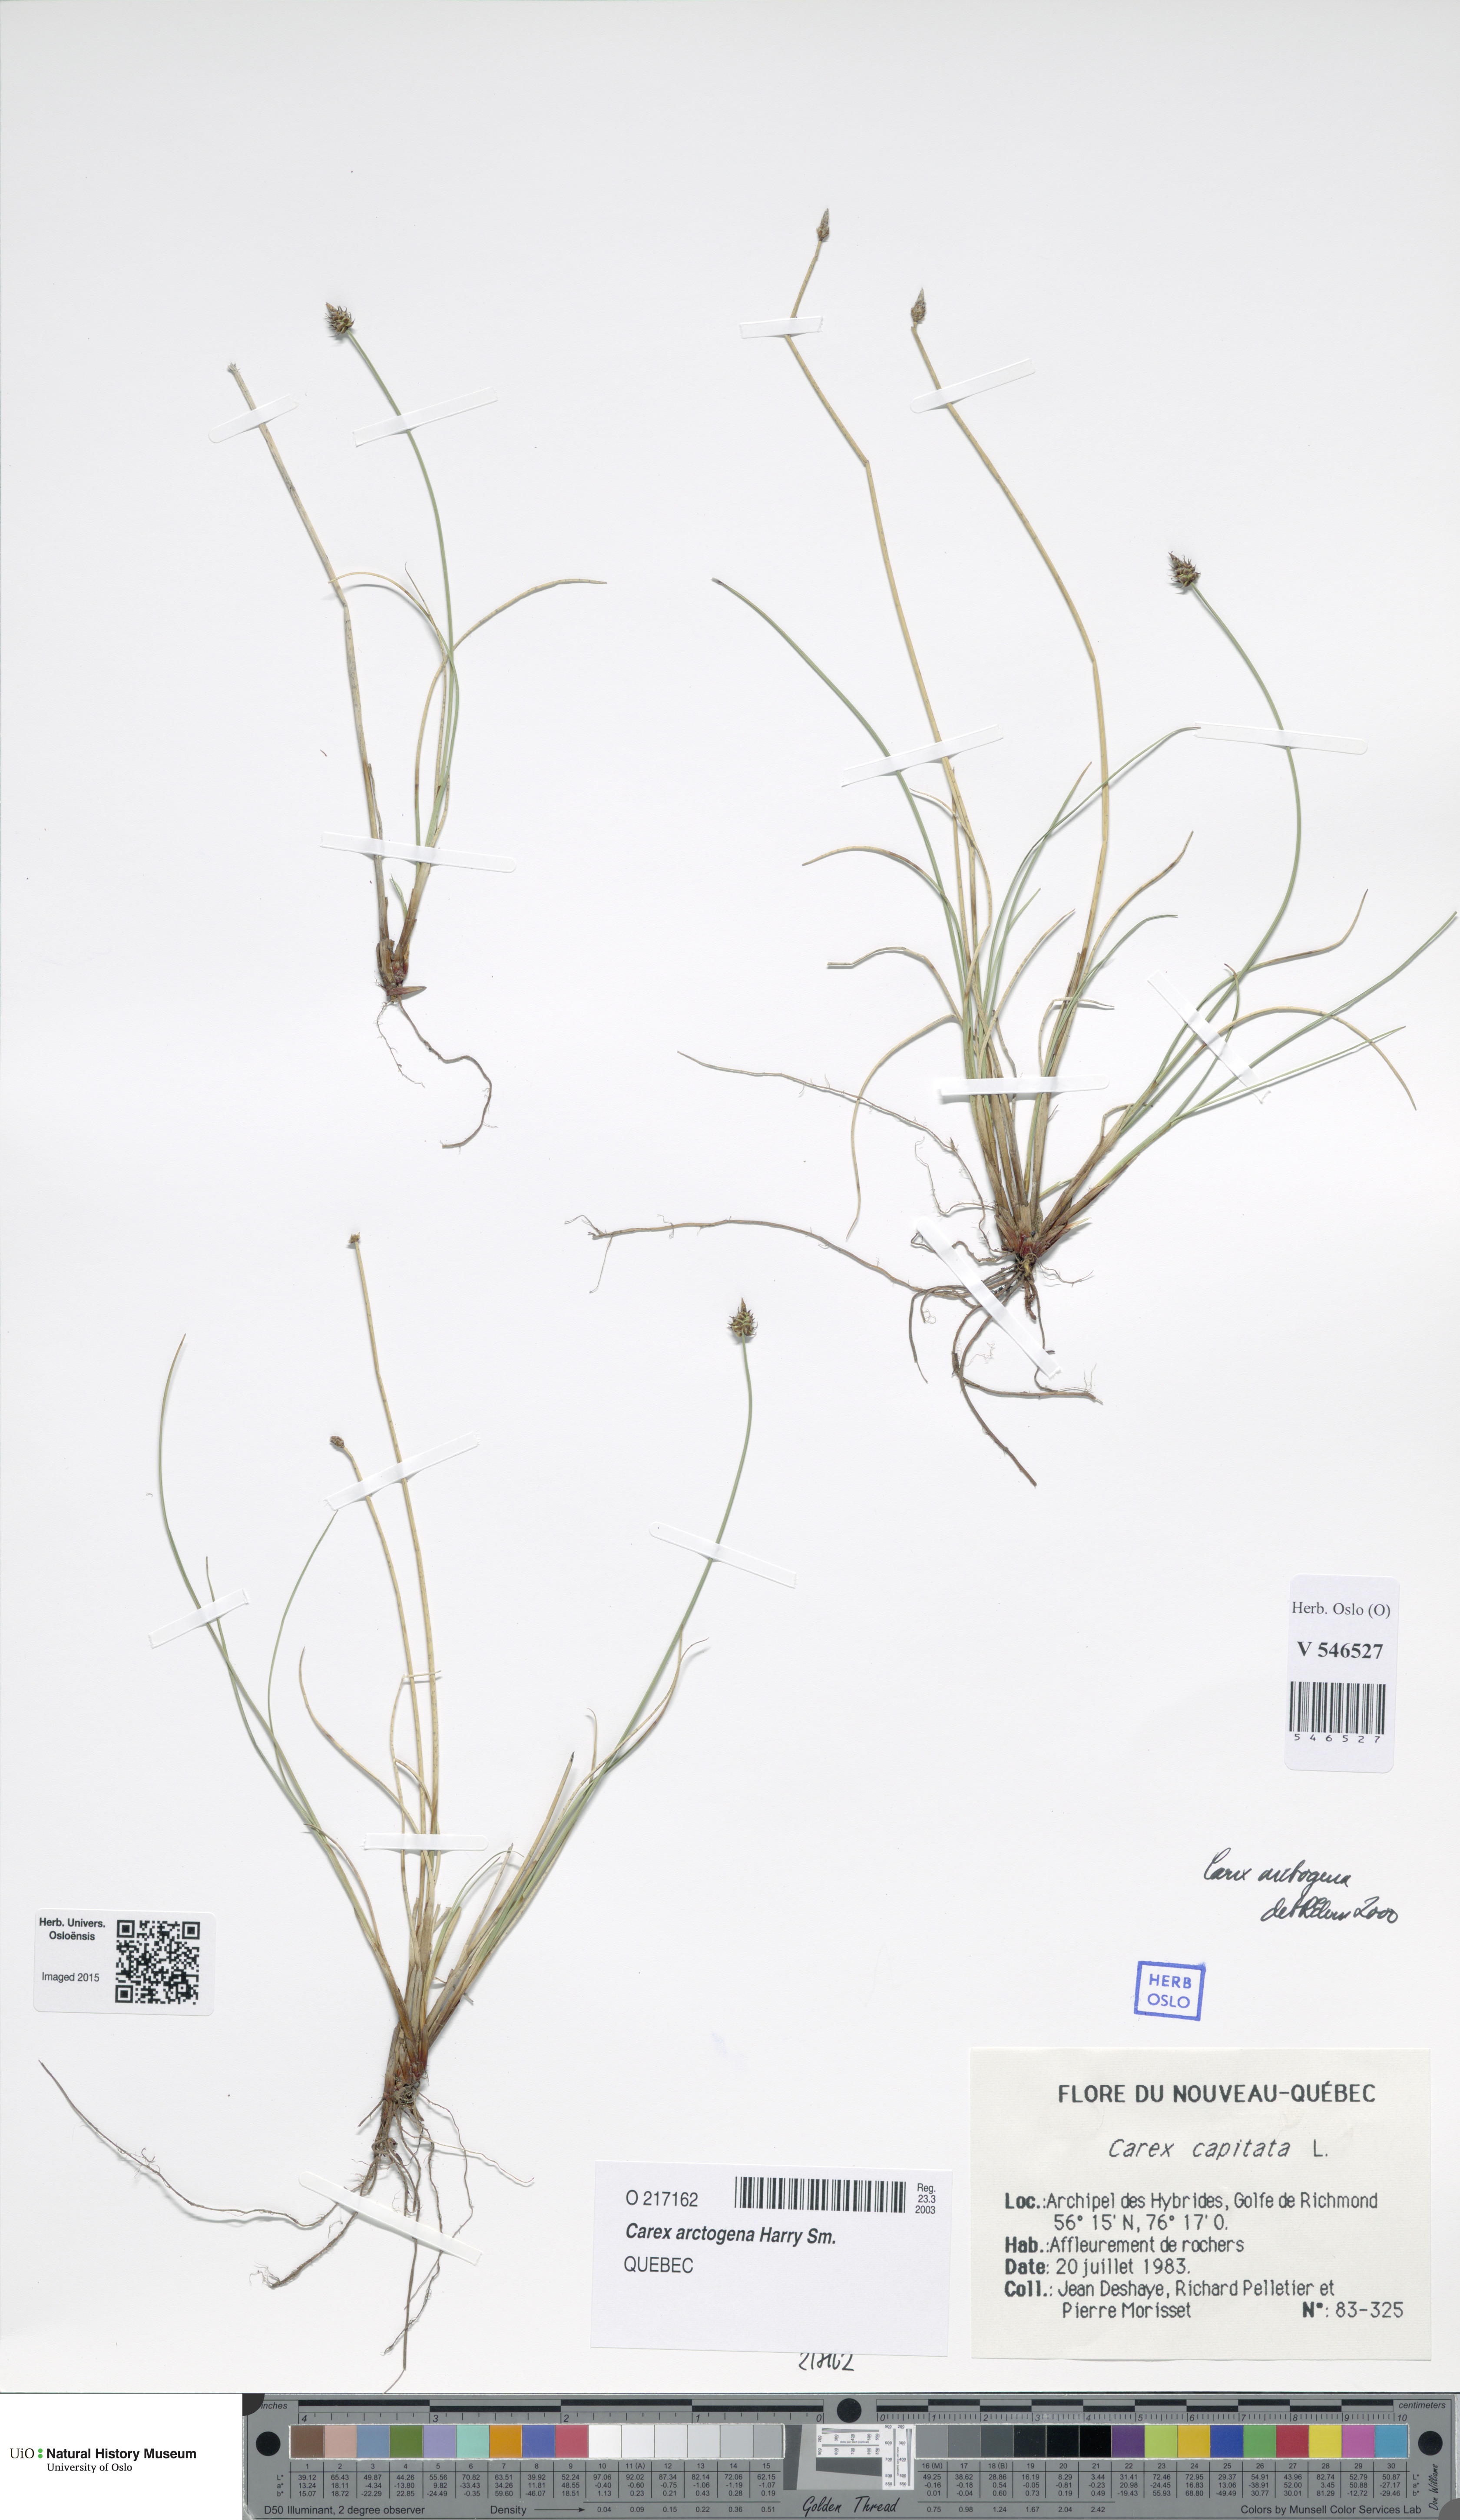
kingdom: Plantae
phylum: Tracheophyta
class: Liliopsida
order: Poales
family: Cyperaceae
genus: Carex
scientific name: Carex arctogena
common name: Black sedge
